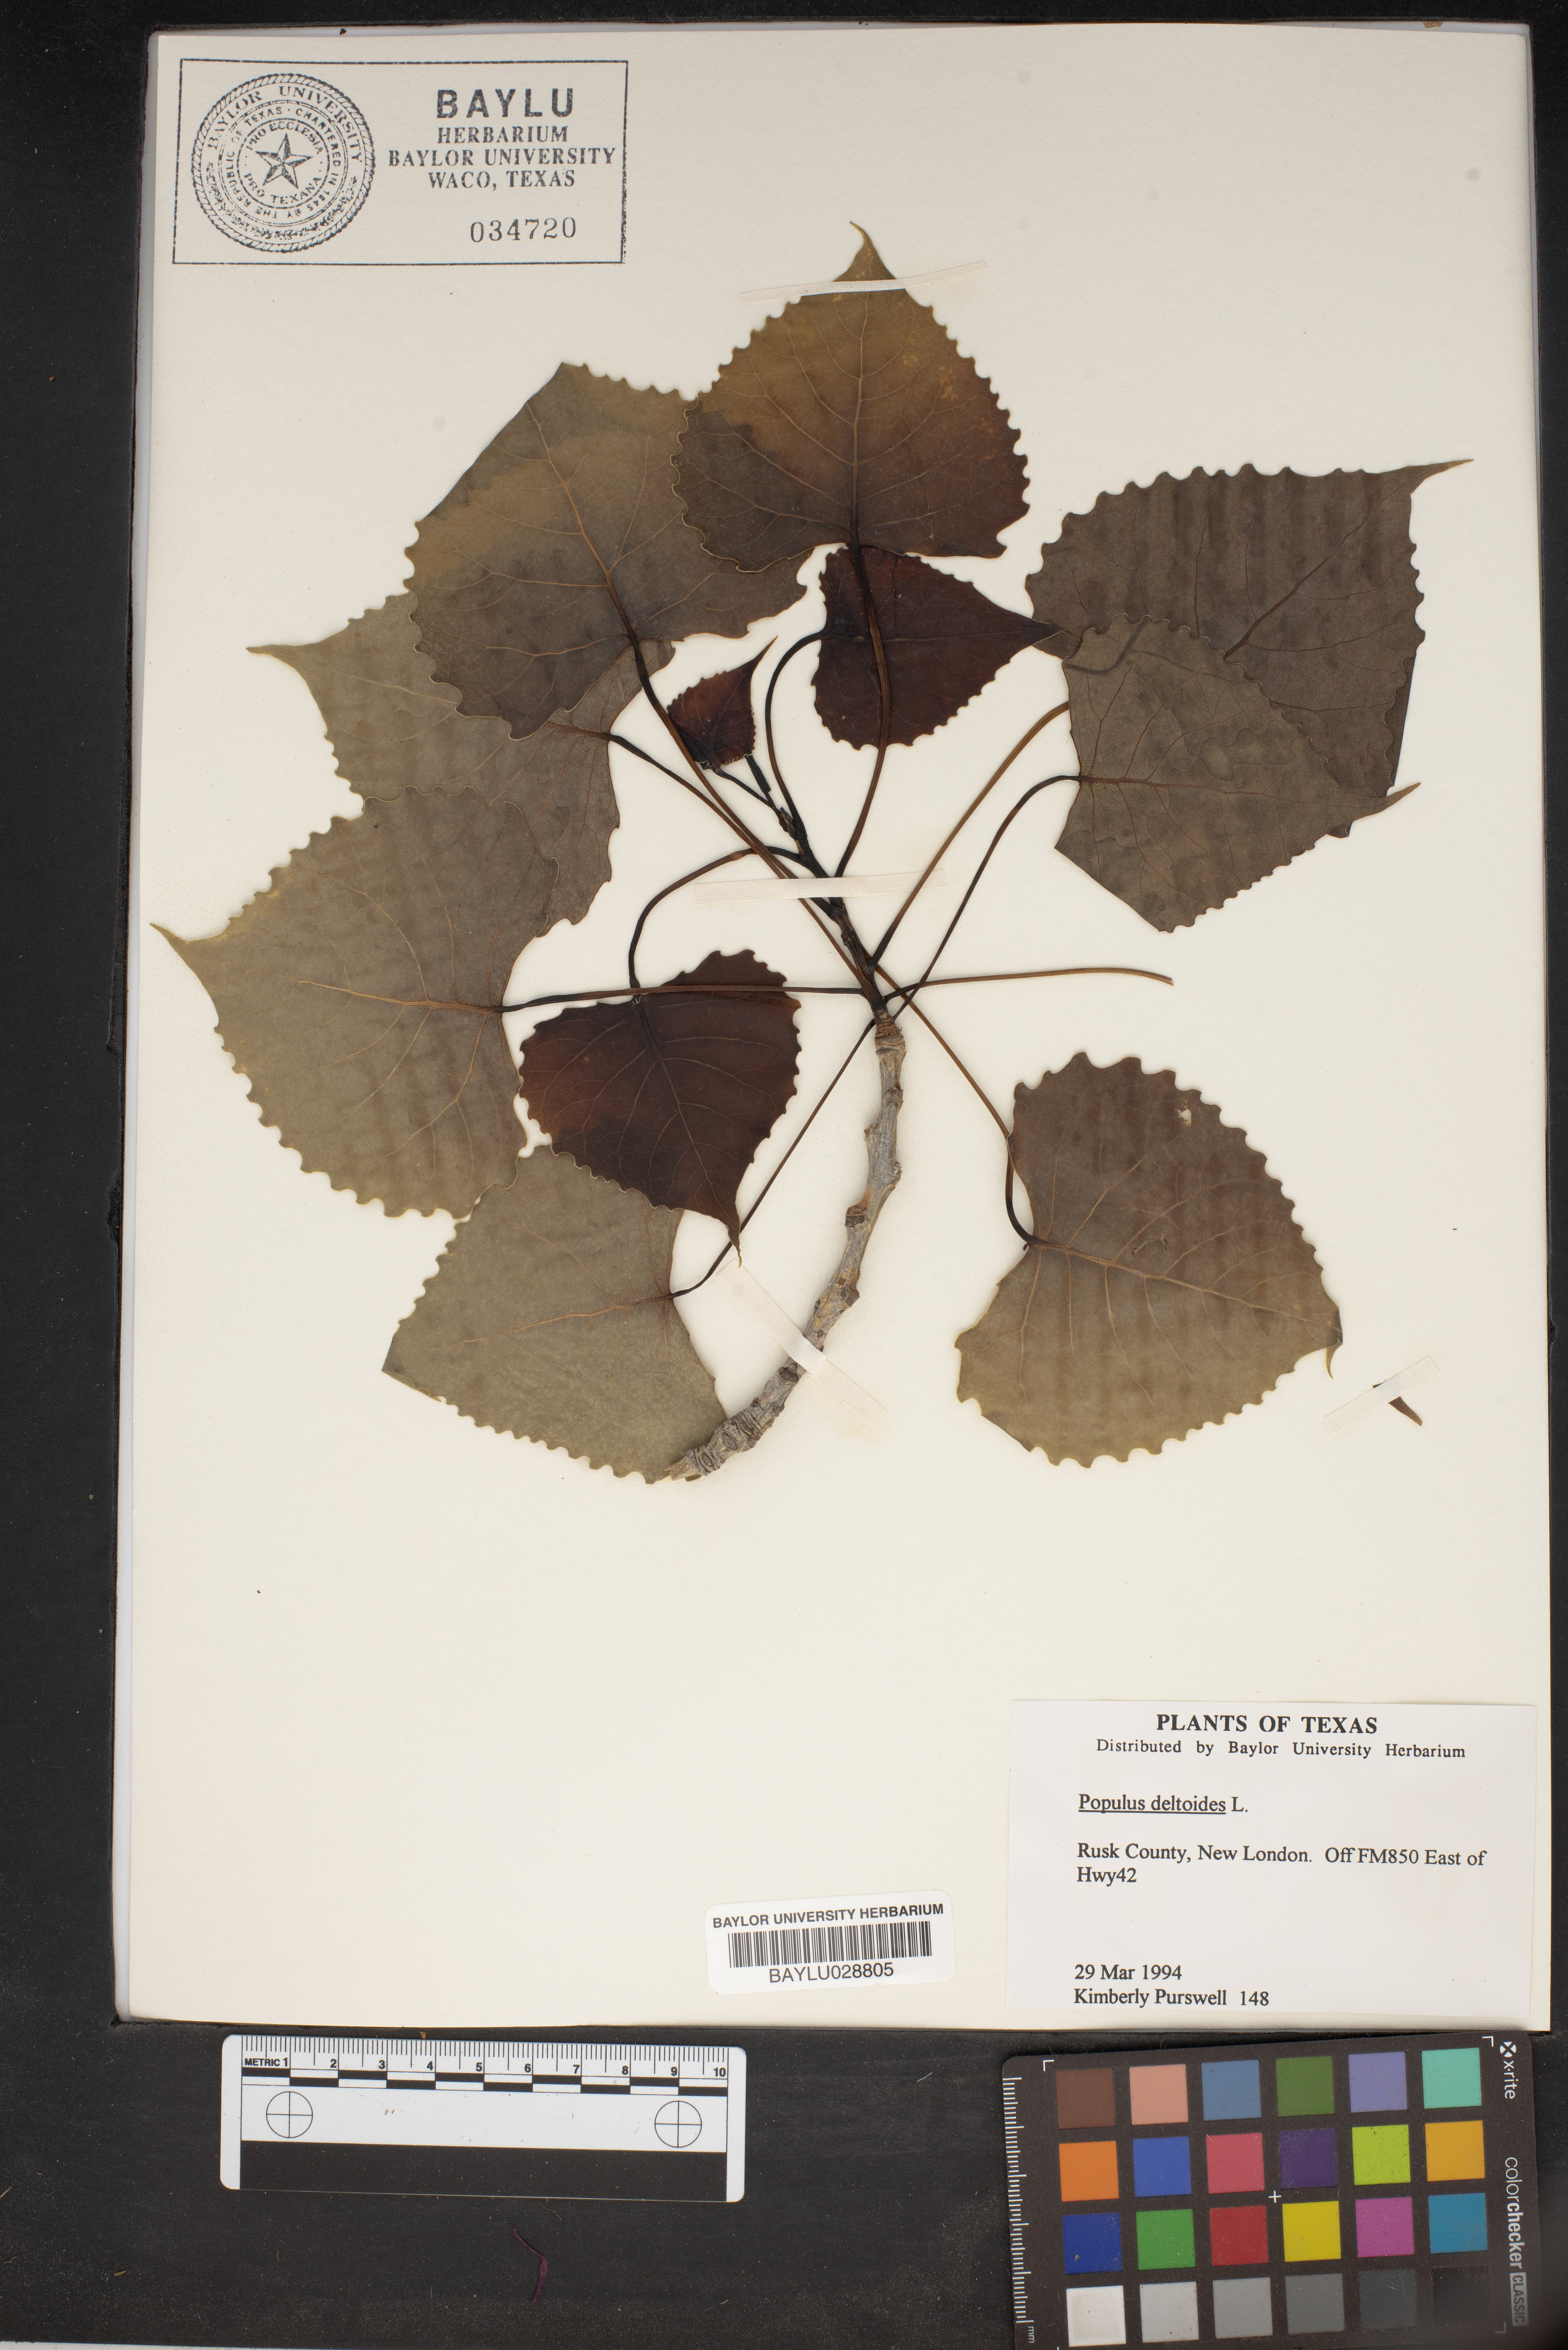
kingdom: Plantae
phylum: Tracheophyta
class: Magnoliopsida
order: Malpighiales
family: Salicaceae
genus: Populus
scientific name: Populus deltoides
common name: Eastern cottonwood
